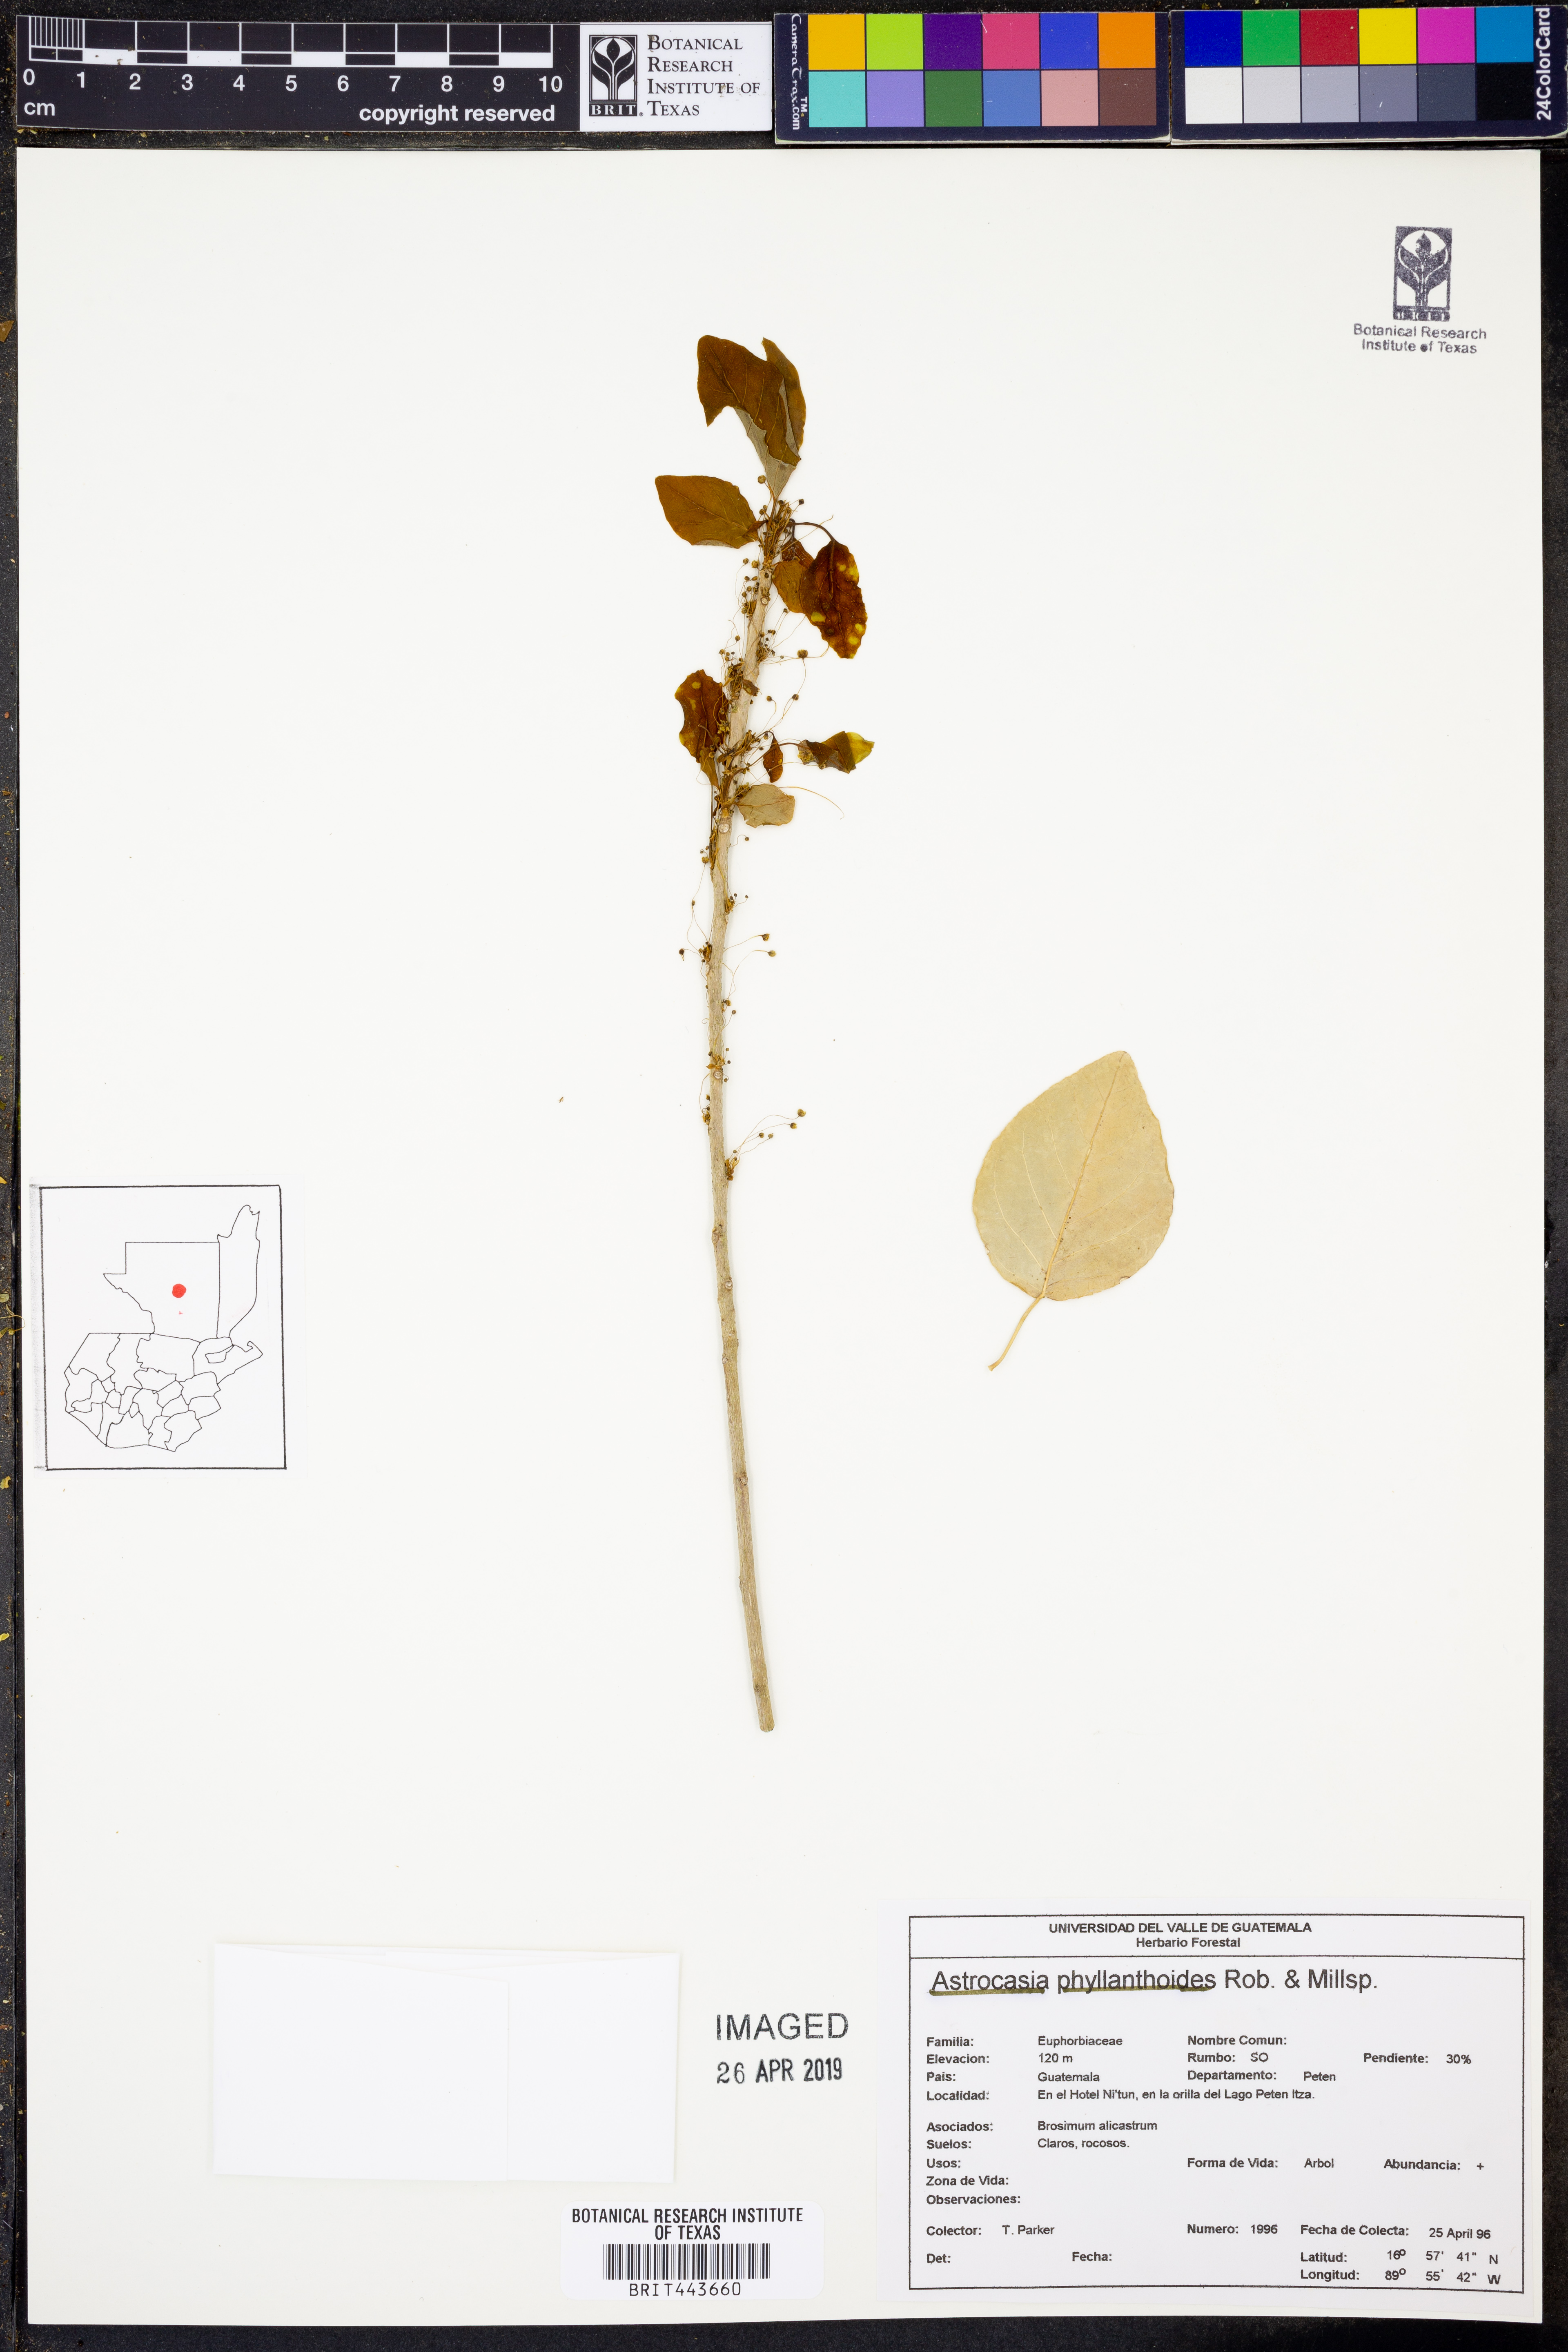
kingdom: Plantae
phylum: Tracheophyta
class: Magnoliopsida
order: Malpighiales
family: Phyllanthaceae
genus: Astrocasia
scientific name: Astrocasia tremula
